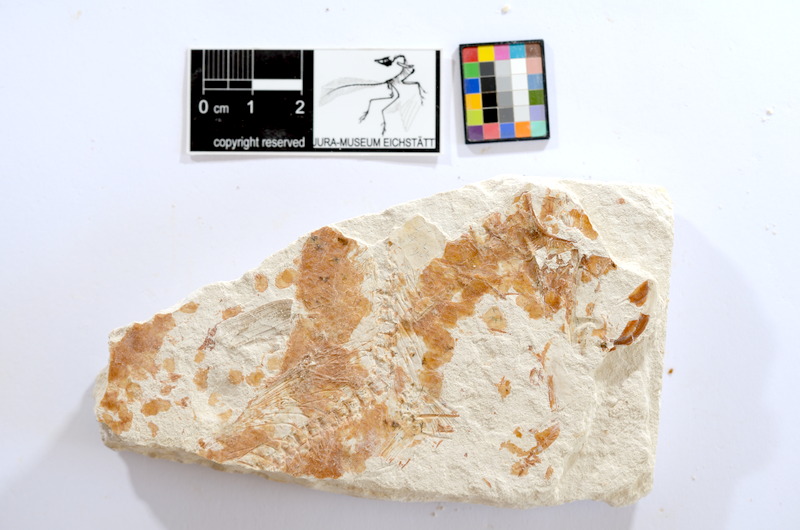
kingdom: Animalia
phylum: Chordata
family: Ascalaboidae
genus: Tharsis
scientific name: Tharsis dubius
